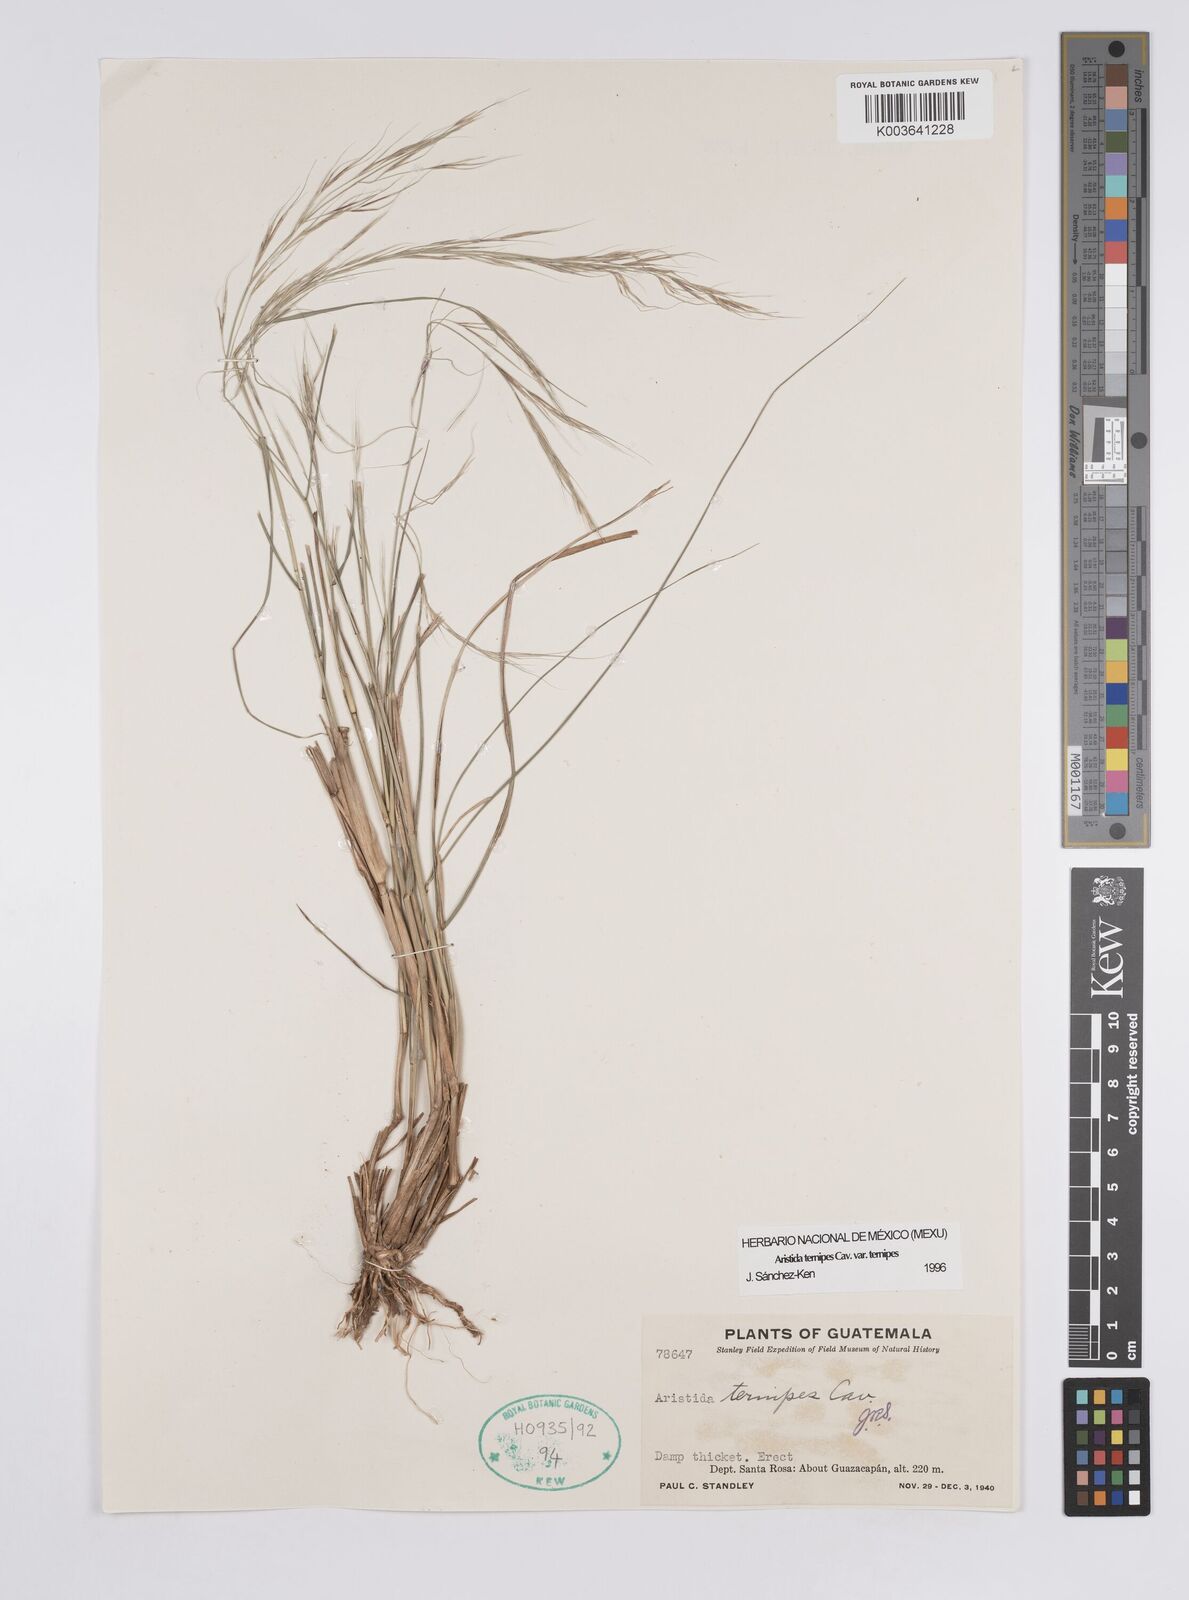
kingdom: Plantae
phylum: Tracheophyta
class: Liliopsida
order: Poales
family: Poaceae
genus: Aristida
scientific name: Aristida
